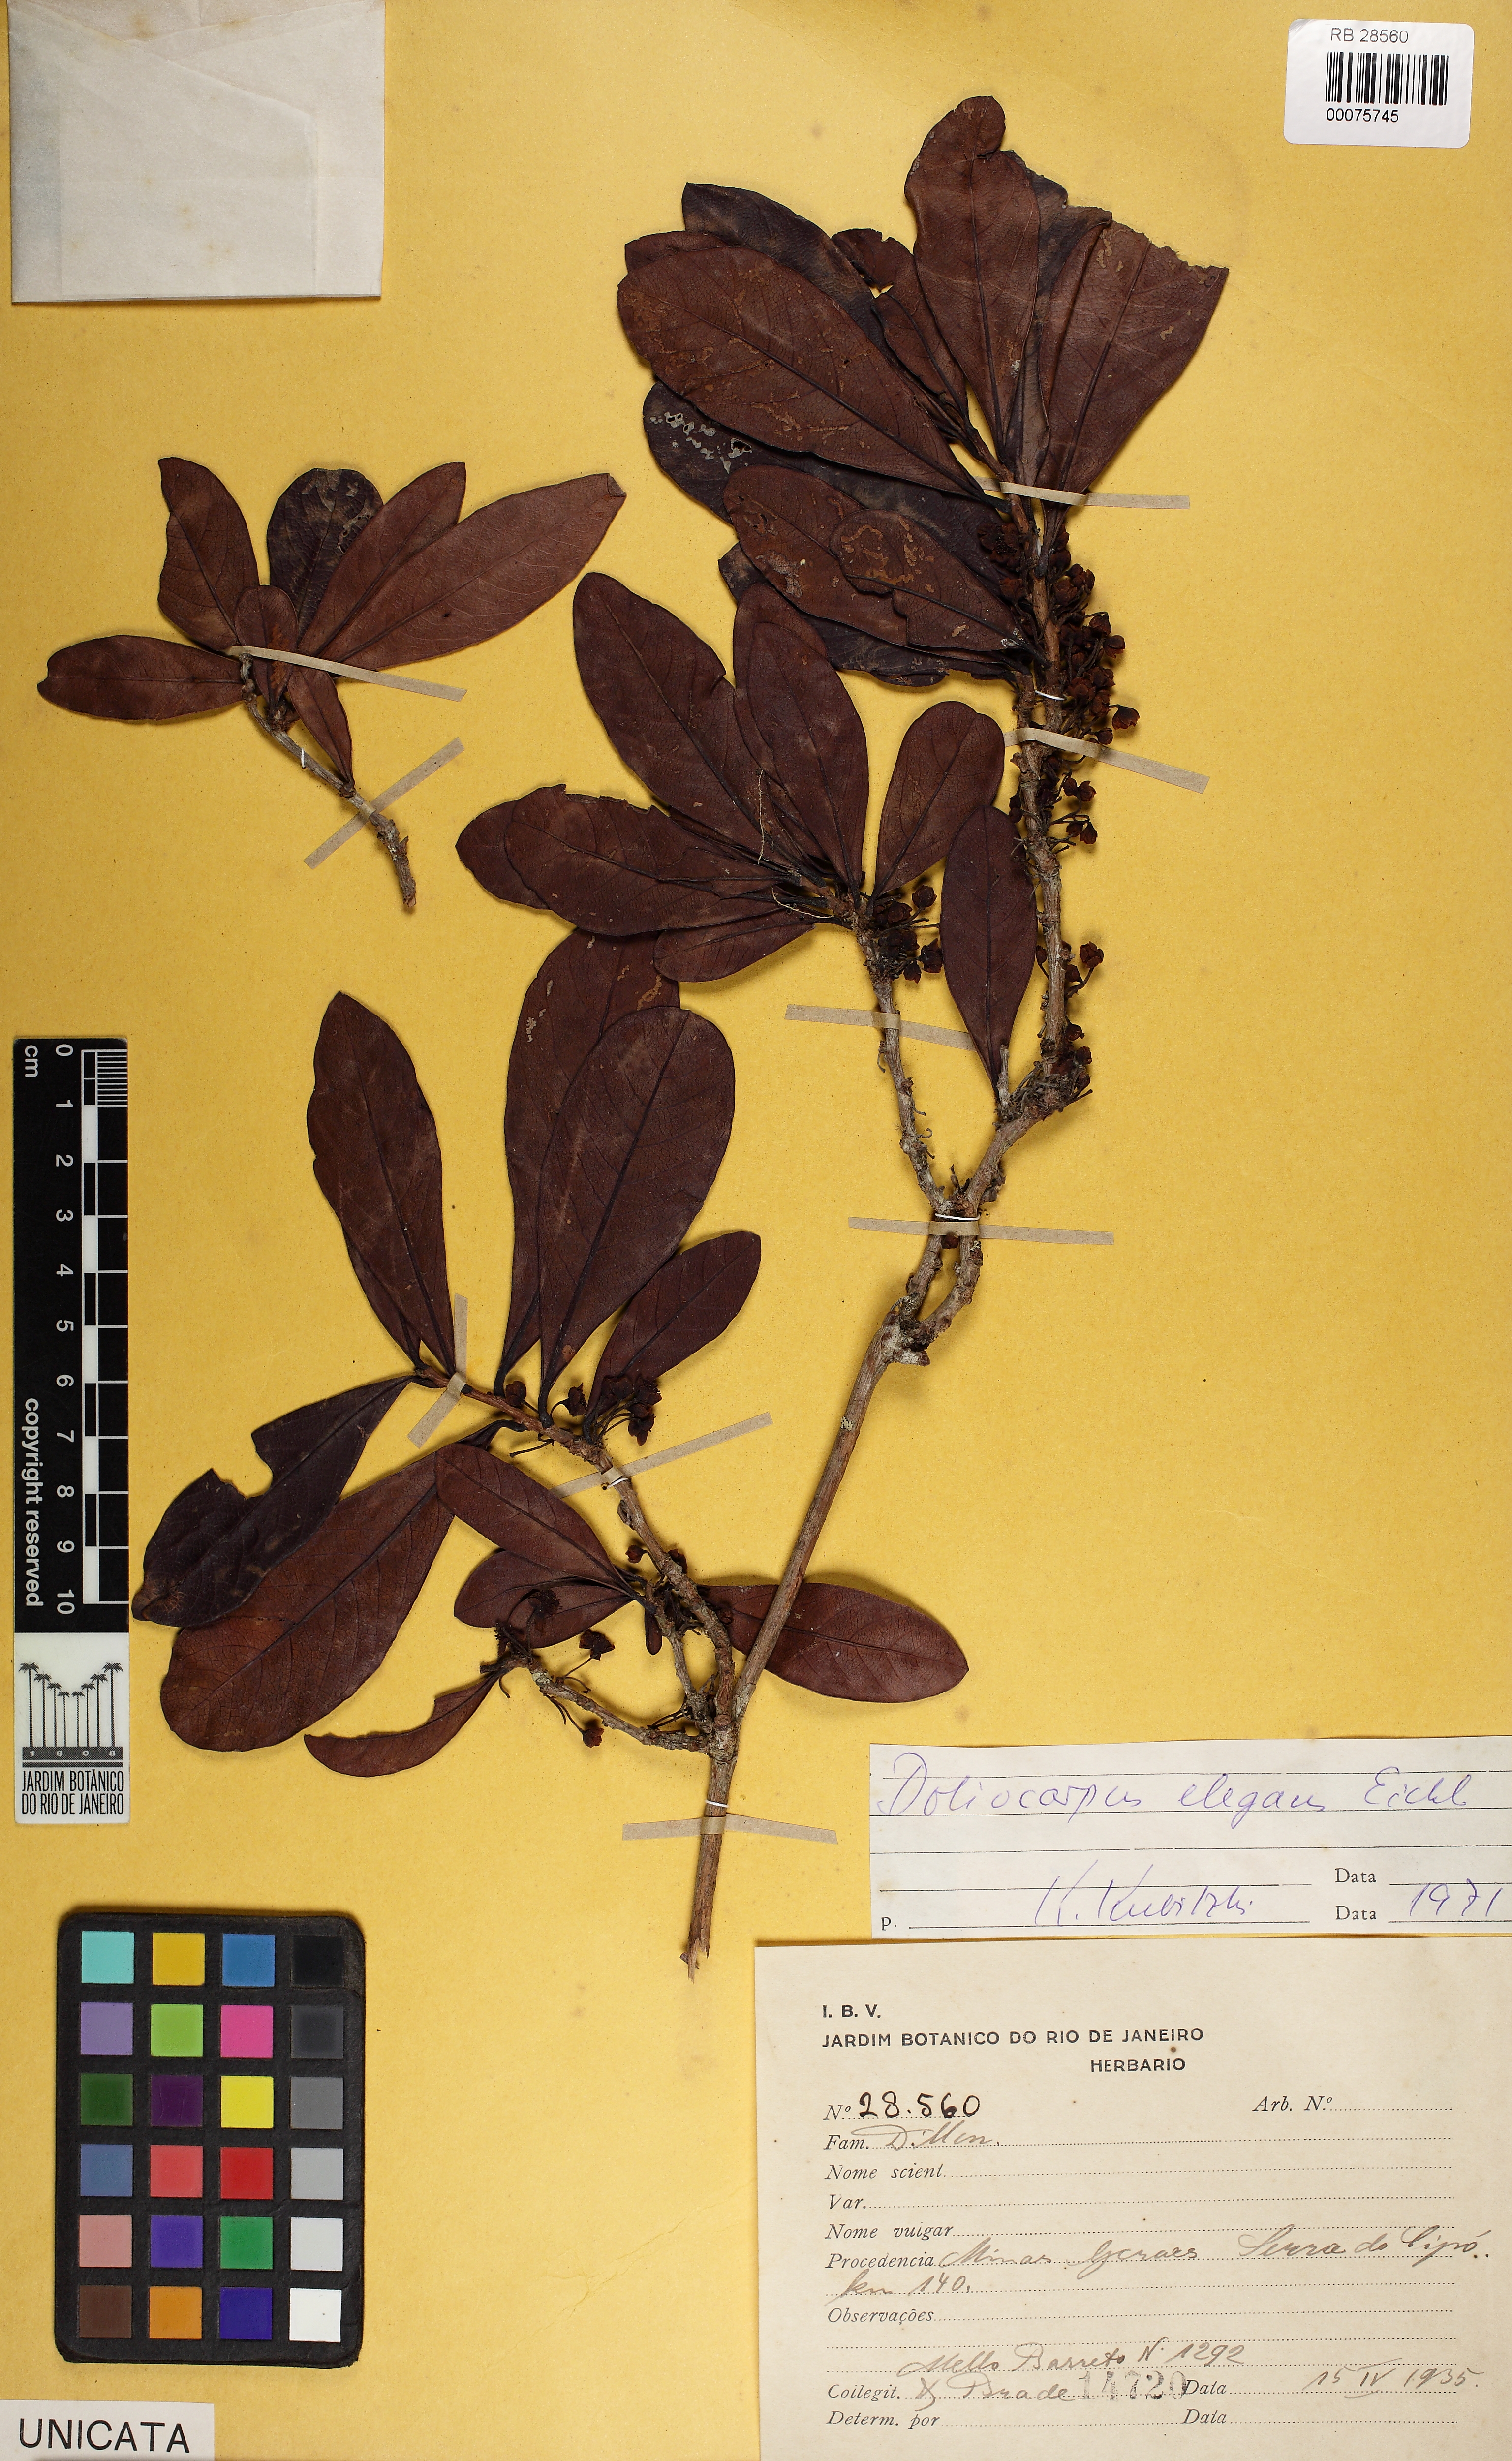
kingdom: Plantae
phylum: Tracheophyta
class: Magnoliopsida
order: Dilleniales
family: Dilleniaceae
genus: Doliocarpus
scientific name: Doliocarpus elegans
